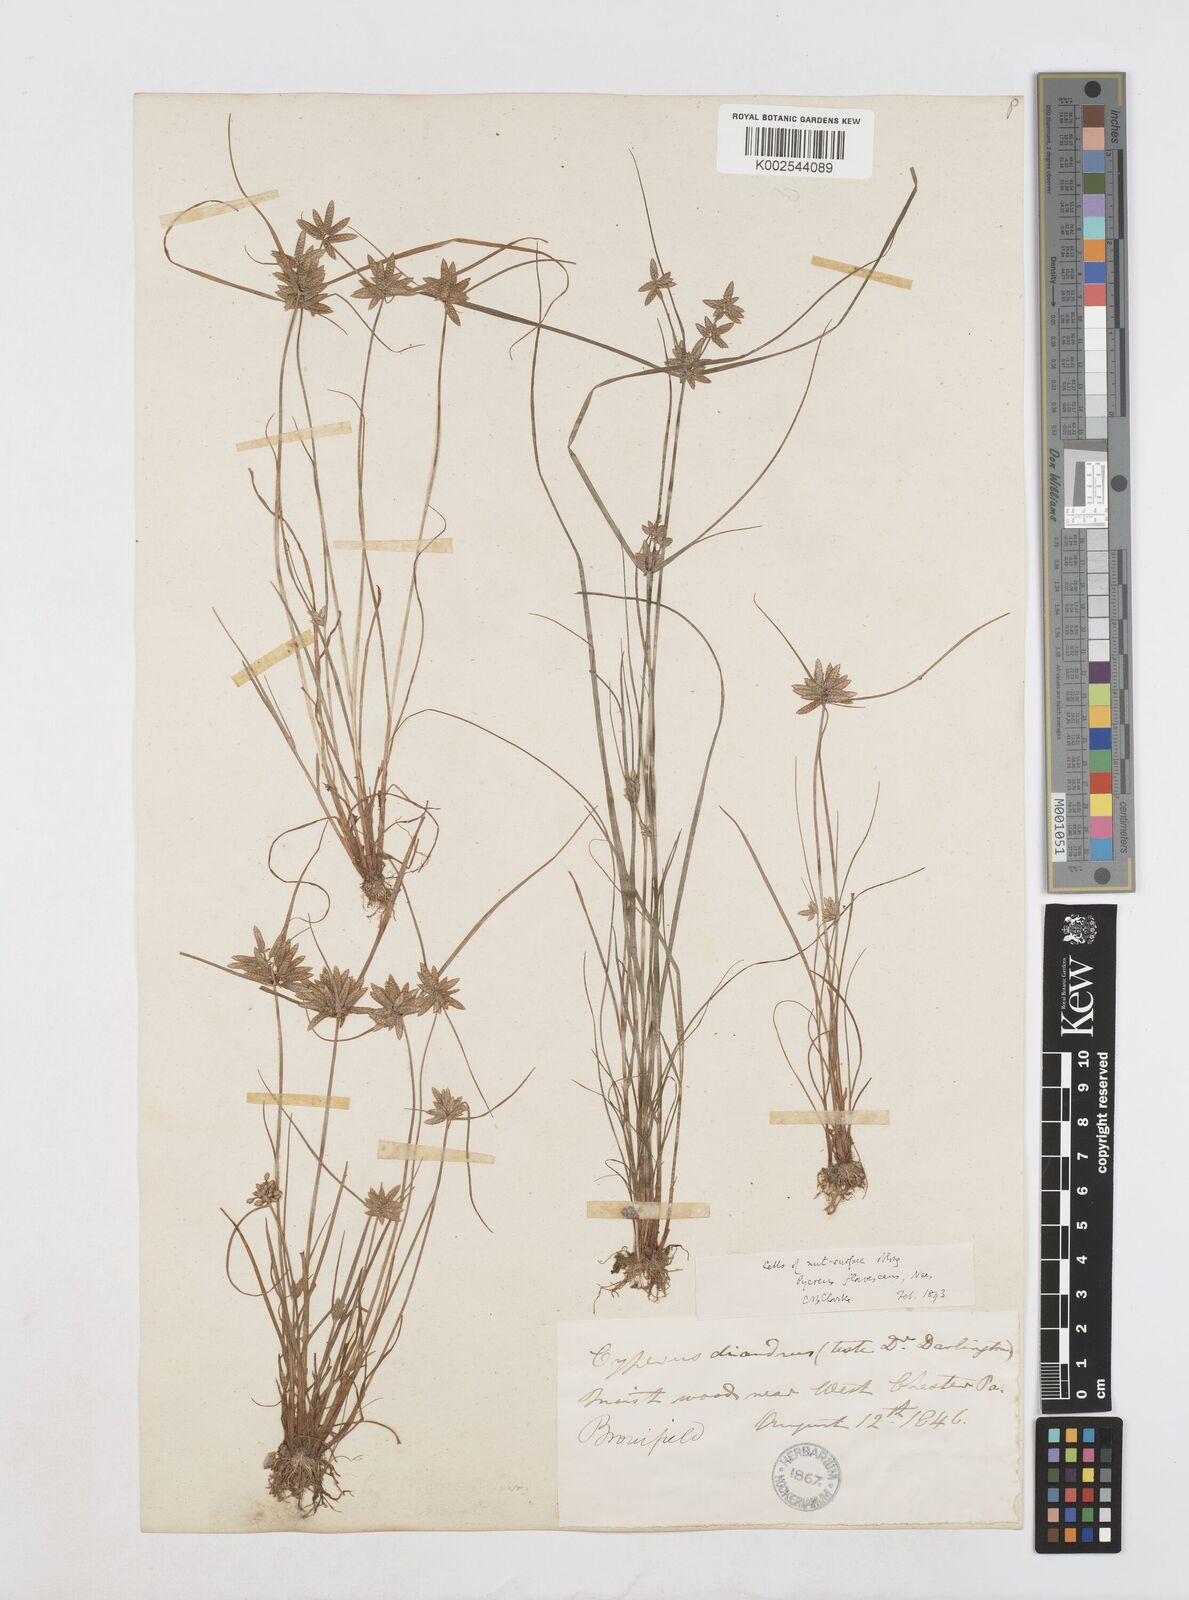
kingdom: Plantae
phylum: Tracheophyta
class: Liliopsida
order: Poales
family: Cyperaceae
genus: Cyperus
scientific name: Cyperus flavescens
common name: Yellow galingale
